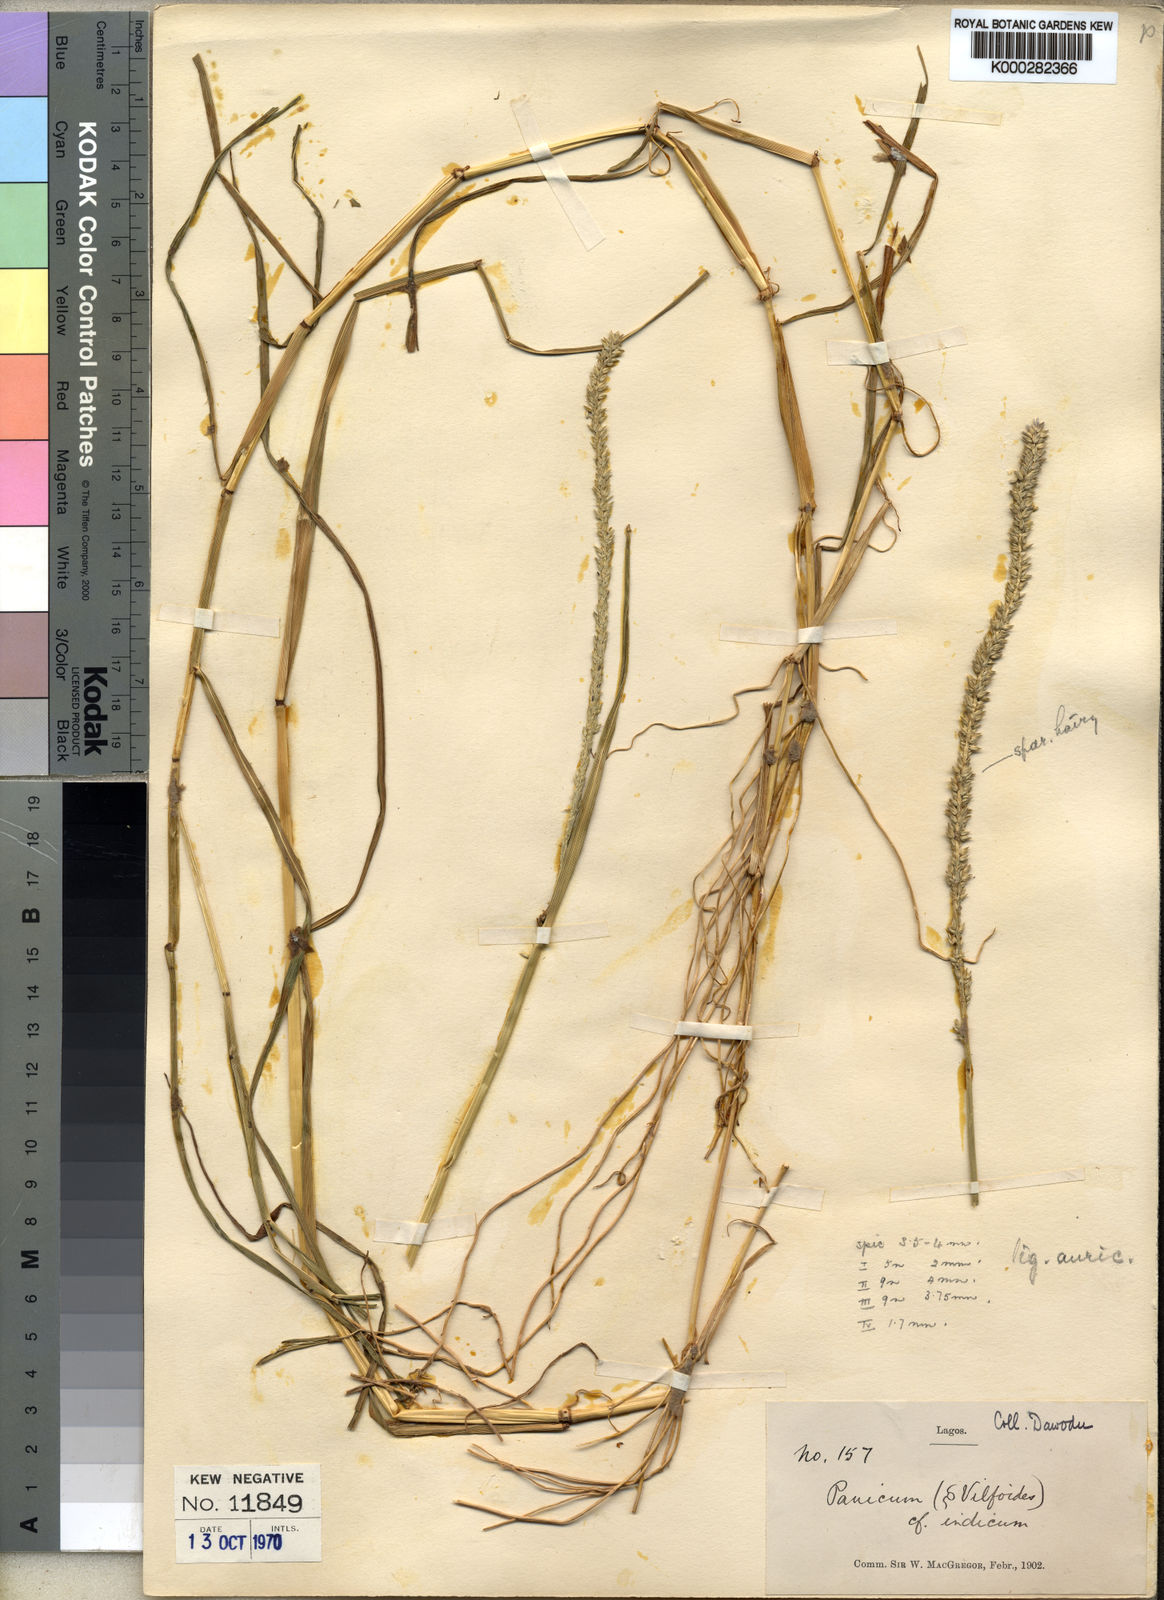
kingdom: Plantae
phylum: Tracheophyta
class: Liliopsida
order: Poales
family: Poaceae
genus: Sacciolepis
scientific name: Sacciolepis indica
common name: Glenwoodgrass
